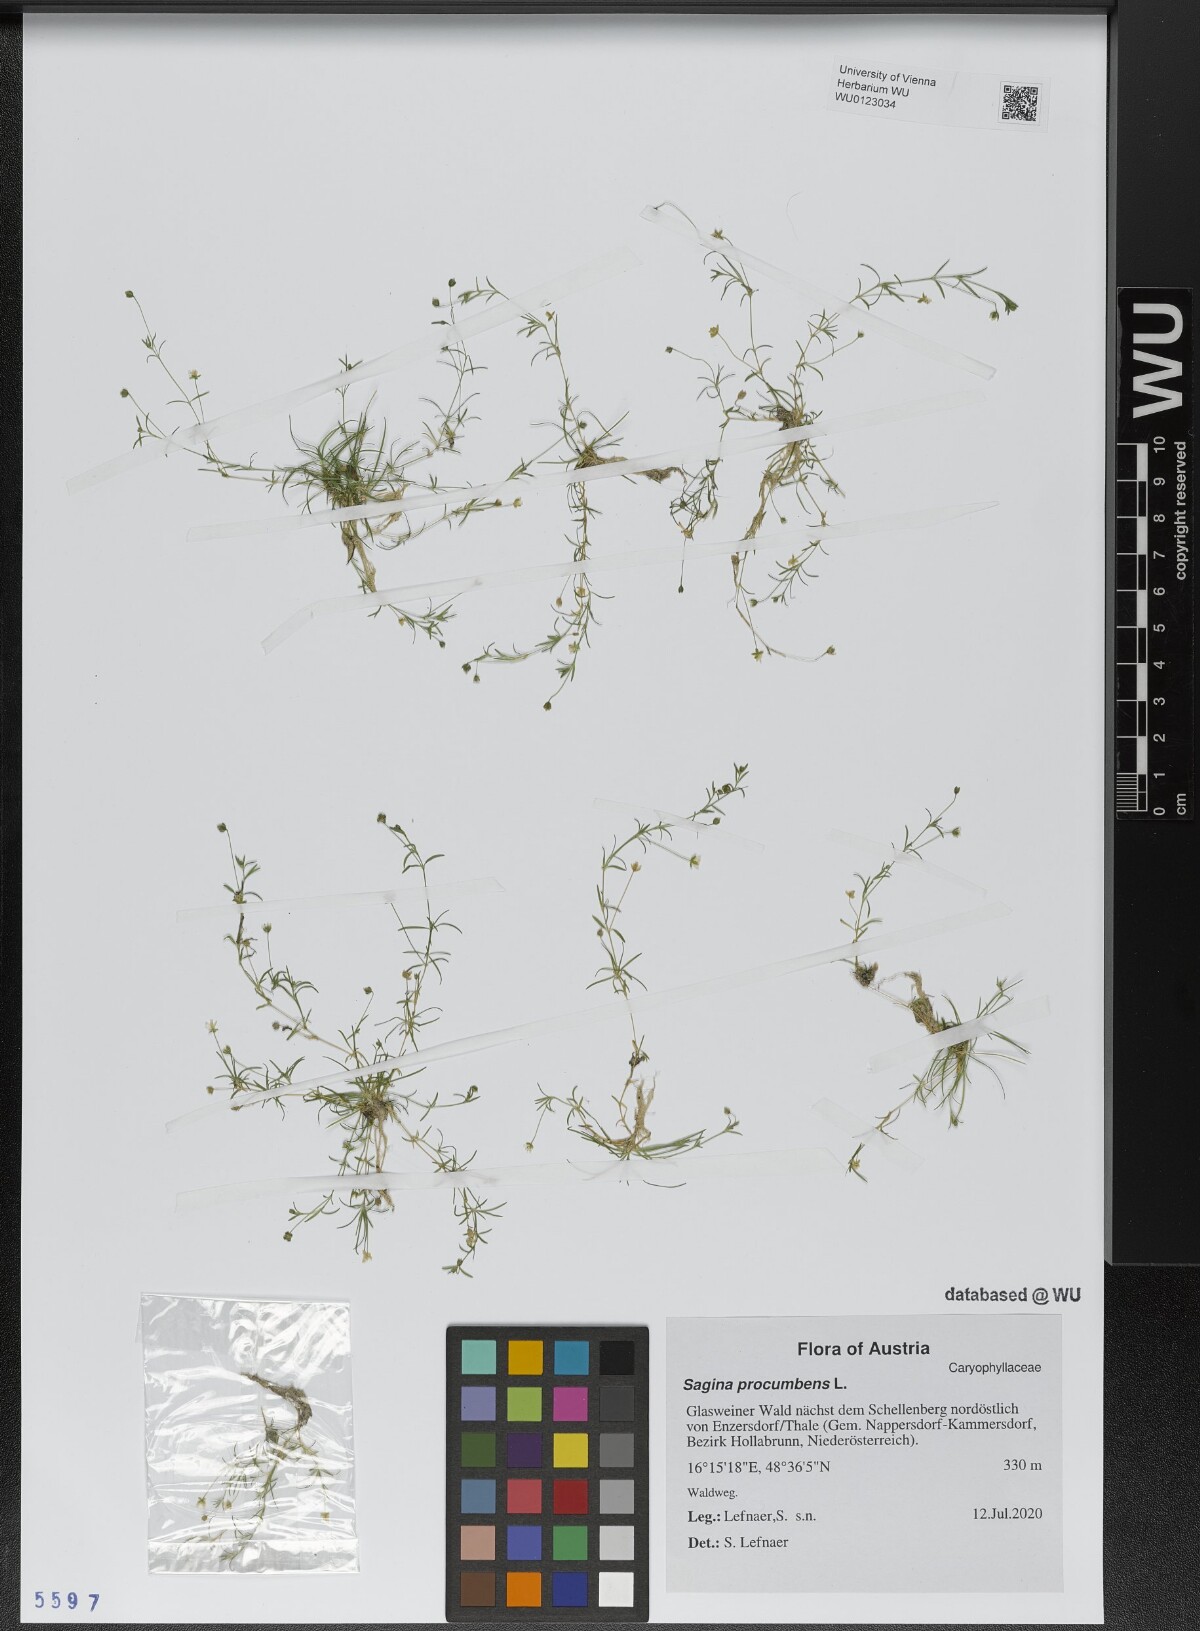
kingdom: Plantae
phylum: Tracheophyta
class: Magnoliopsida
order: Caryophyllales
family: Caryophyllaceae
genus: Sagina
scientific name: Sagina procumbens
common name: Procumbent pearlwort
